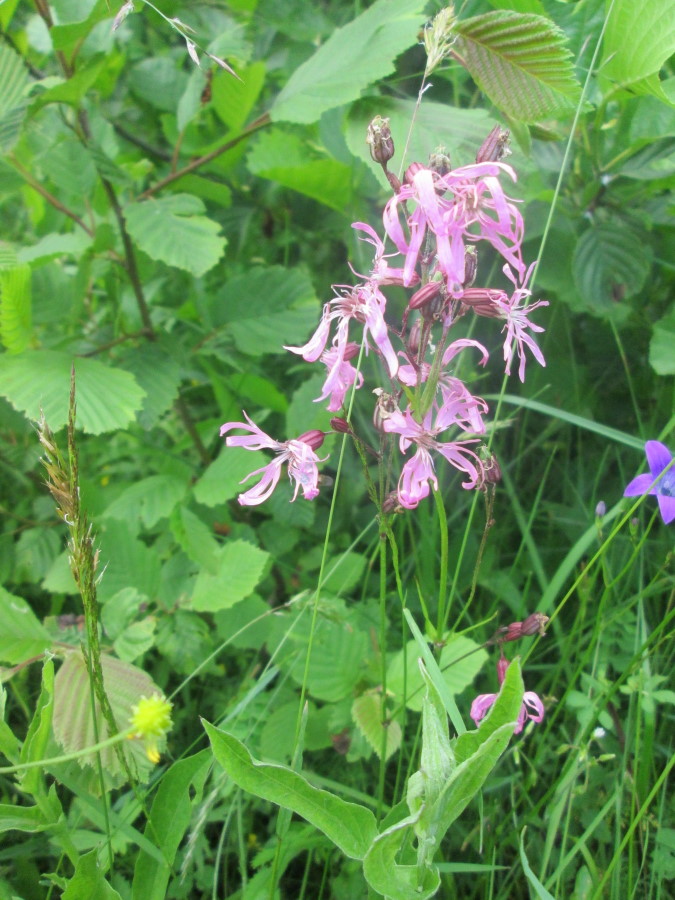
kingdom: Plantae
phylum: Tracheophyta
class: Magnoliopsida
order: Caryophyllales
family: Caryophyllaceae
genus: Silene
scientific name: Silene flos-cuculi
